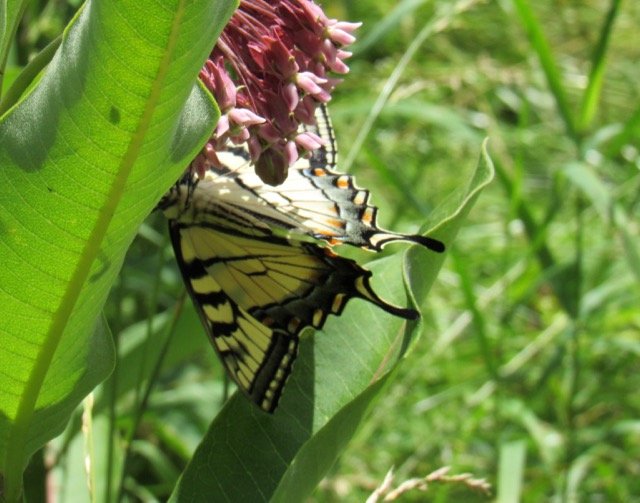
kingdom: Animalia
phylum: Arthropoda
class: Insecta
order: Lepidoptera
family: Papilionidae
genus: Pterourus
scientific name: Pterourus canadensis
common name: Canadian Tiger Swallowtail
